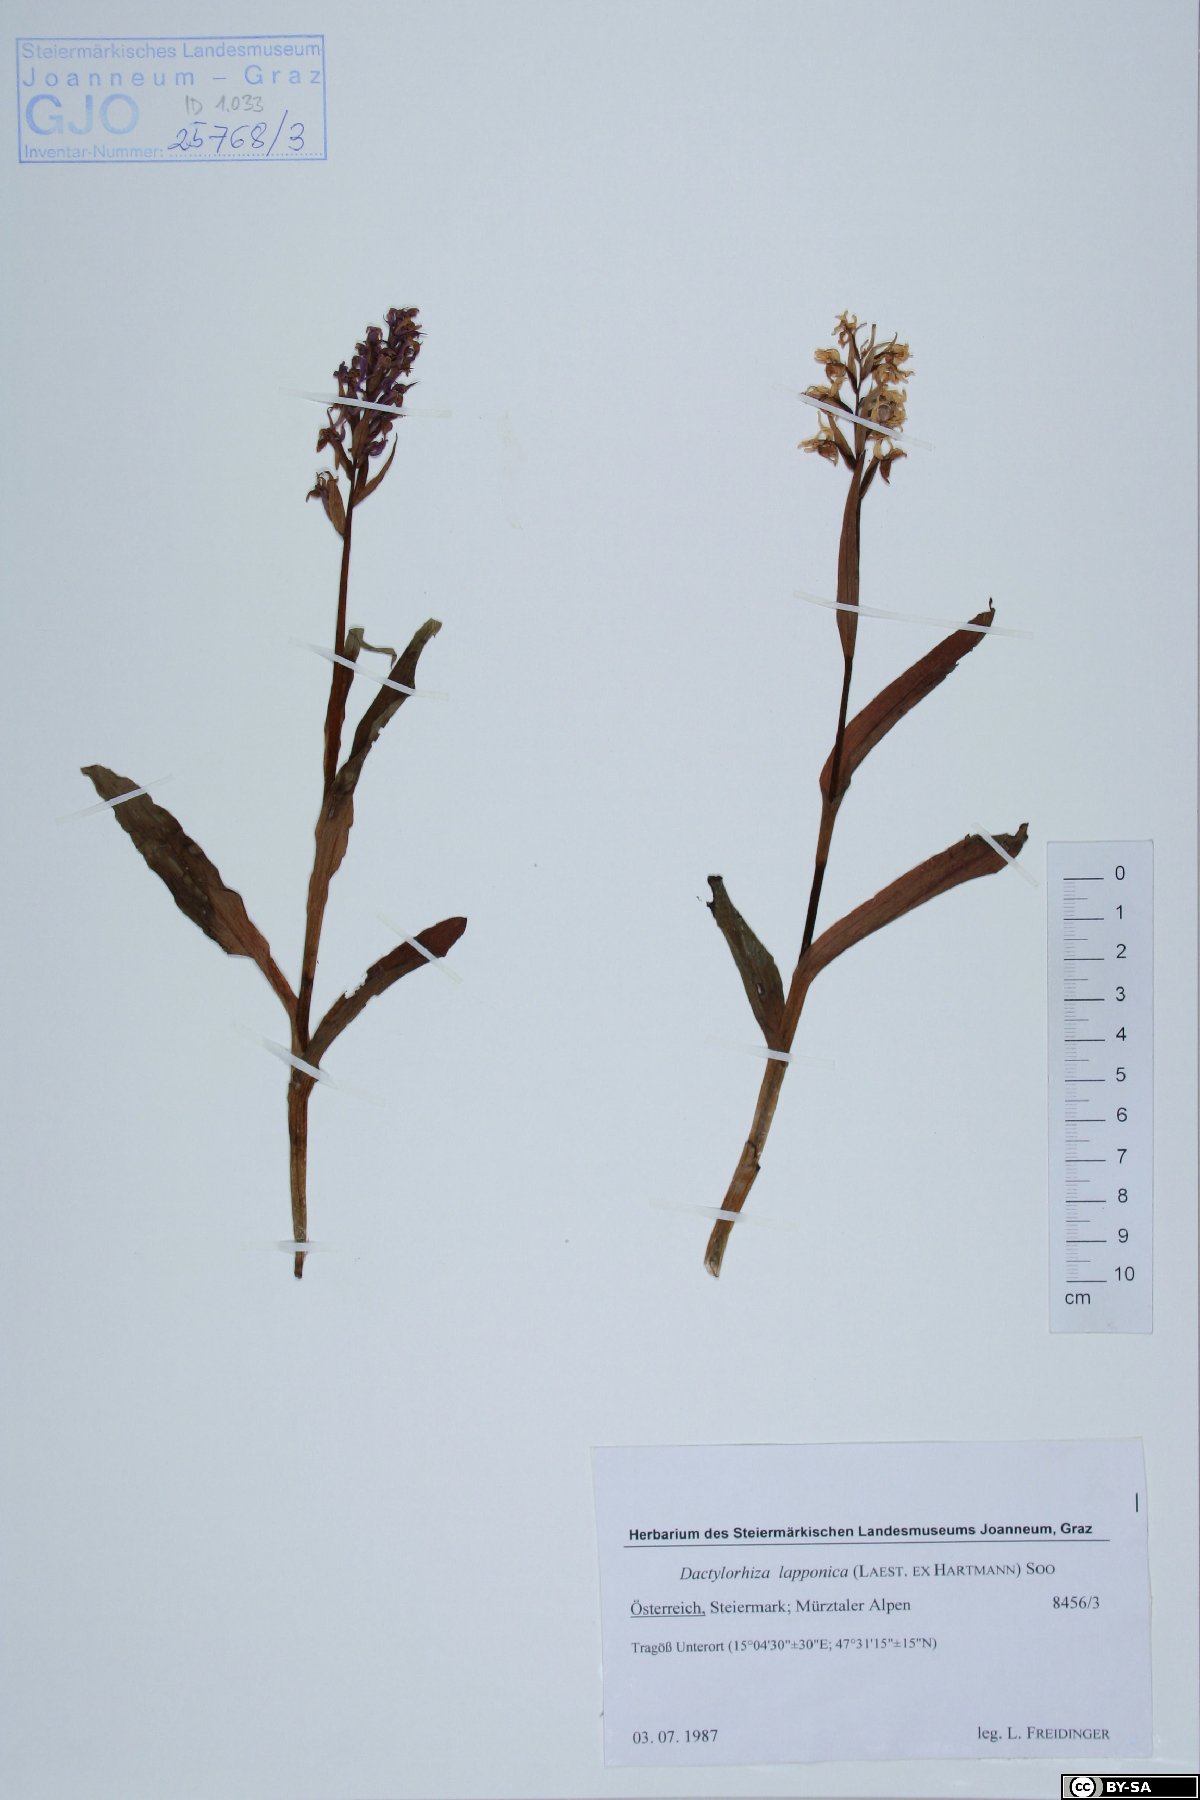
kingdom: Plantae
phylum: Tracheophyta
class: Liliopsida
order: Asparagales
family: Orchidaceae
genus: Dactylorhiza
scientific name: Dactylorhiza majalis
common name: Marsh orchid
